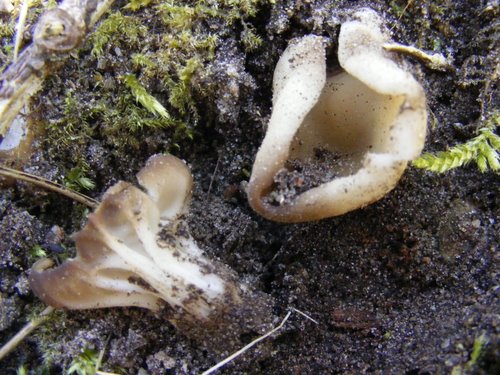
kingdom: Fungi
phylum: Ascomycota
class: Pezizomycetes
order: Pezizales
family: Helvellaceae
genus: Helvella
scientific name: Helvella acetabulum
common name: pokal-foldhat
